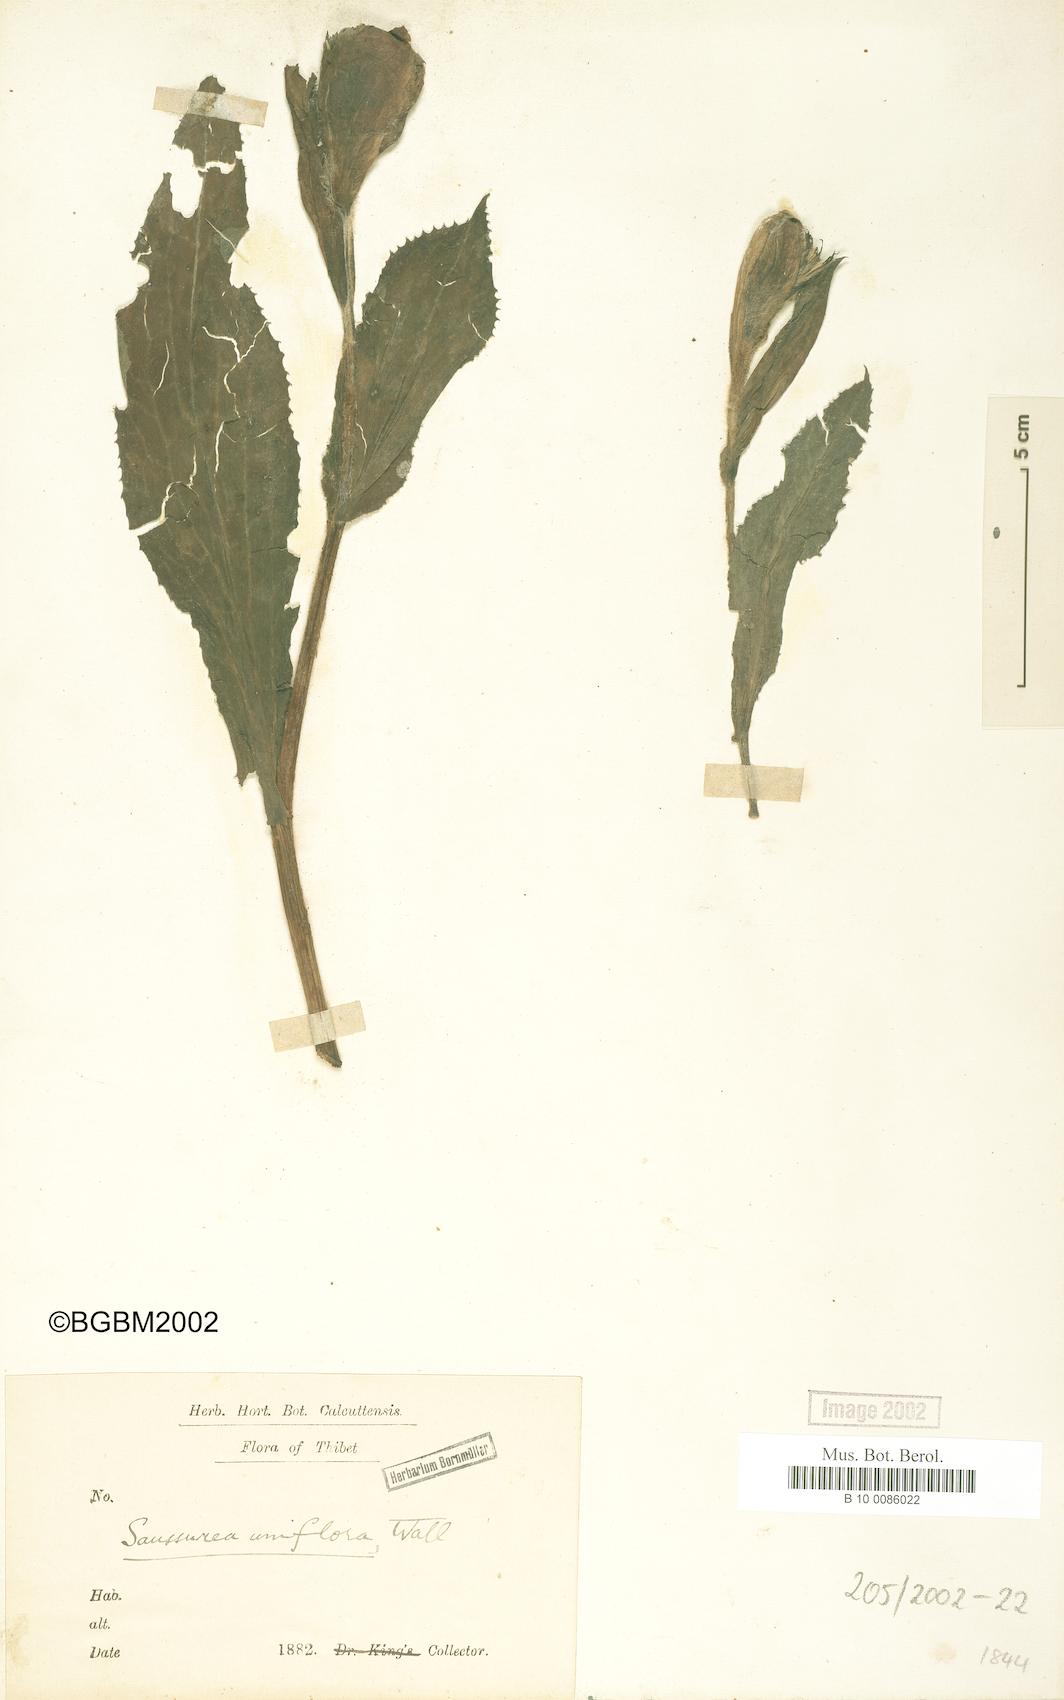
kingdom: Plantae
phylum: Tracheophyta
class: Magnoliopsida
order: Asterales
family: Asteraceae
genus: Saussurea
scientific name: Saussurea uniflora
